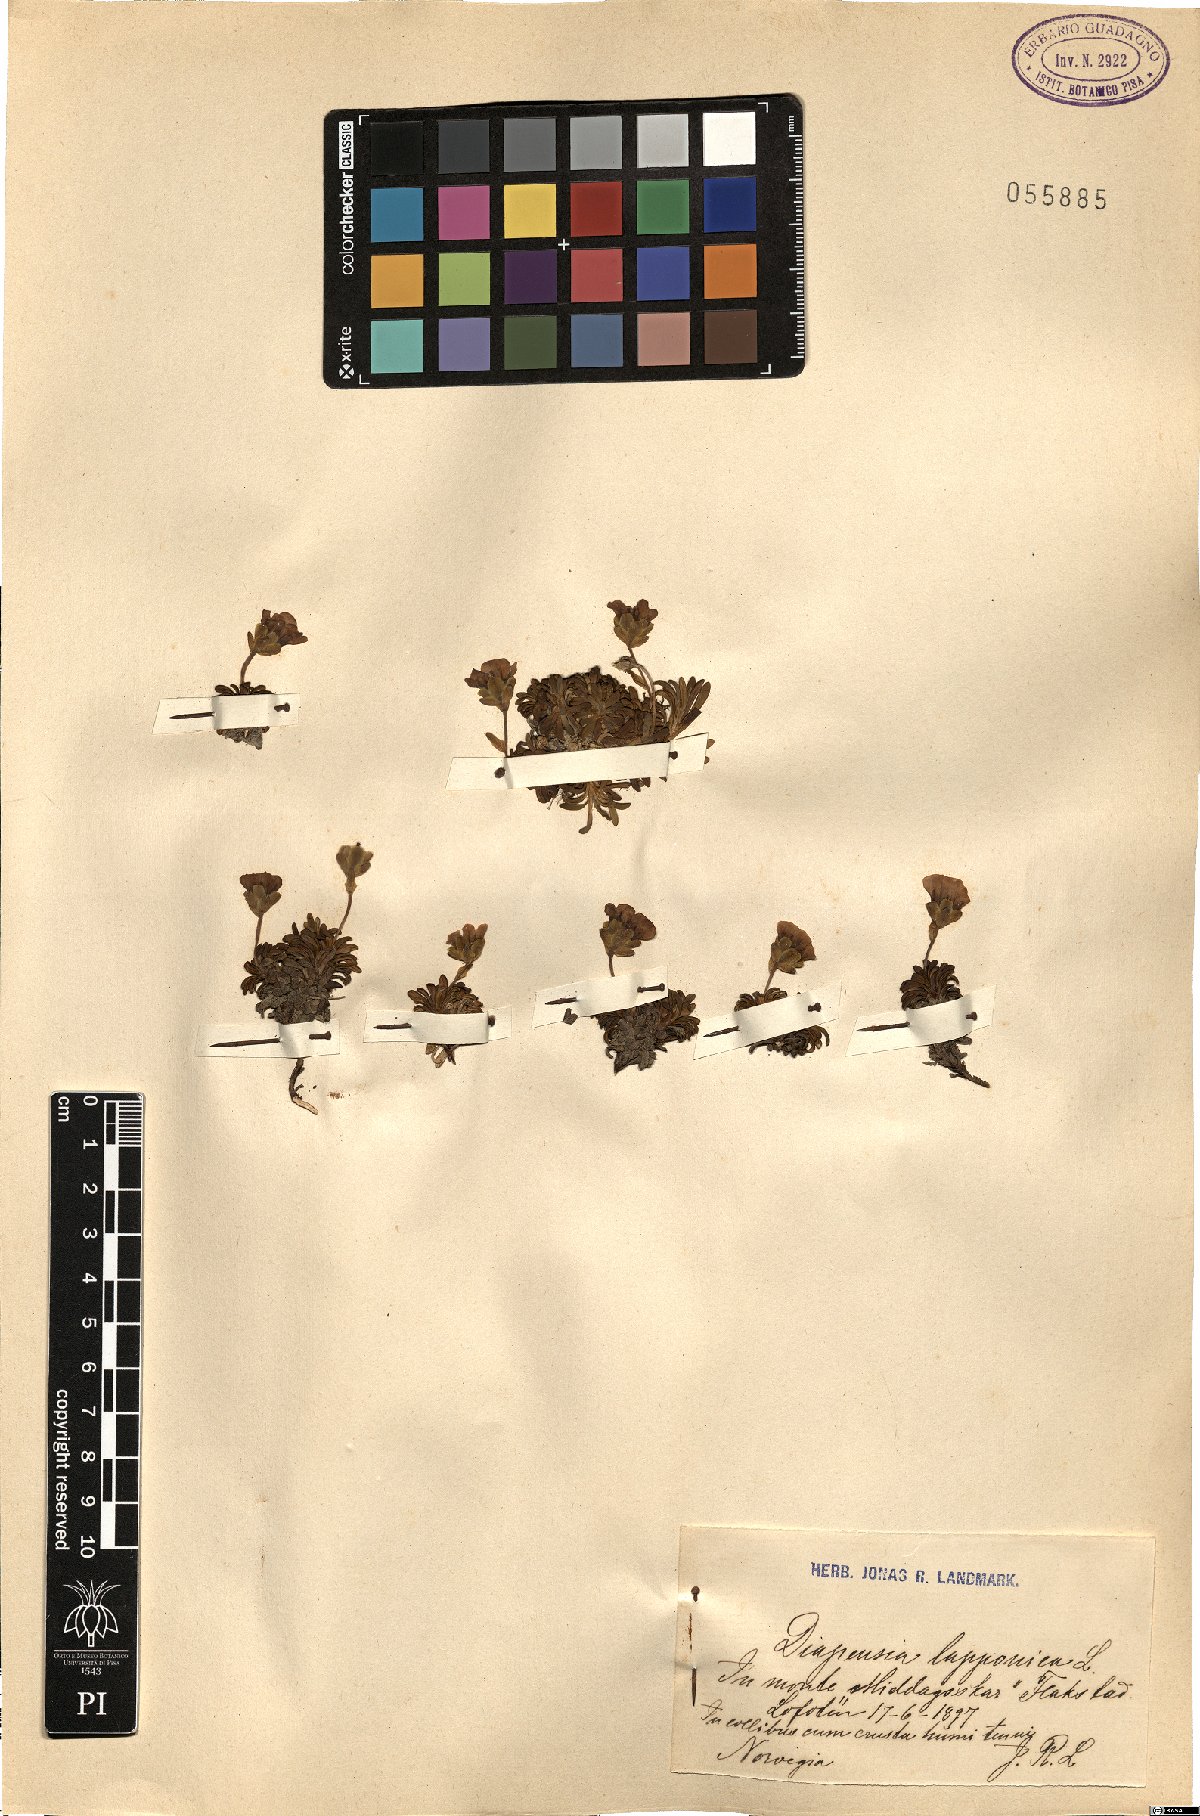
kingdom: Plantae
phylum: Tracheophyta
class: Magnoliopsida
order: Ericales
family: Diapensiaceae
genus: Diapensia
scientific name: Diapensia lapponica
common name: Diapensia
